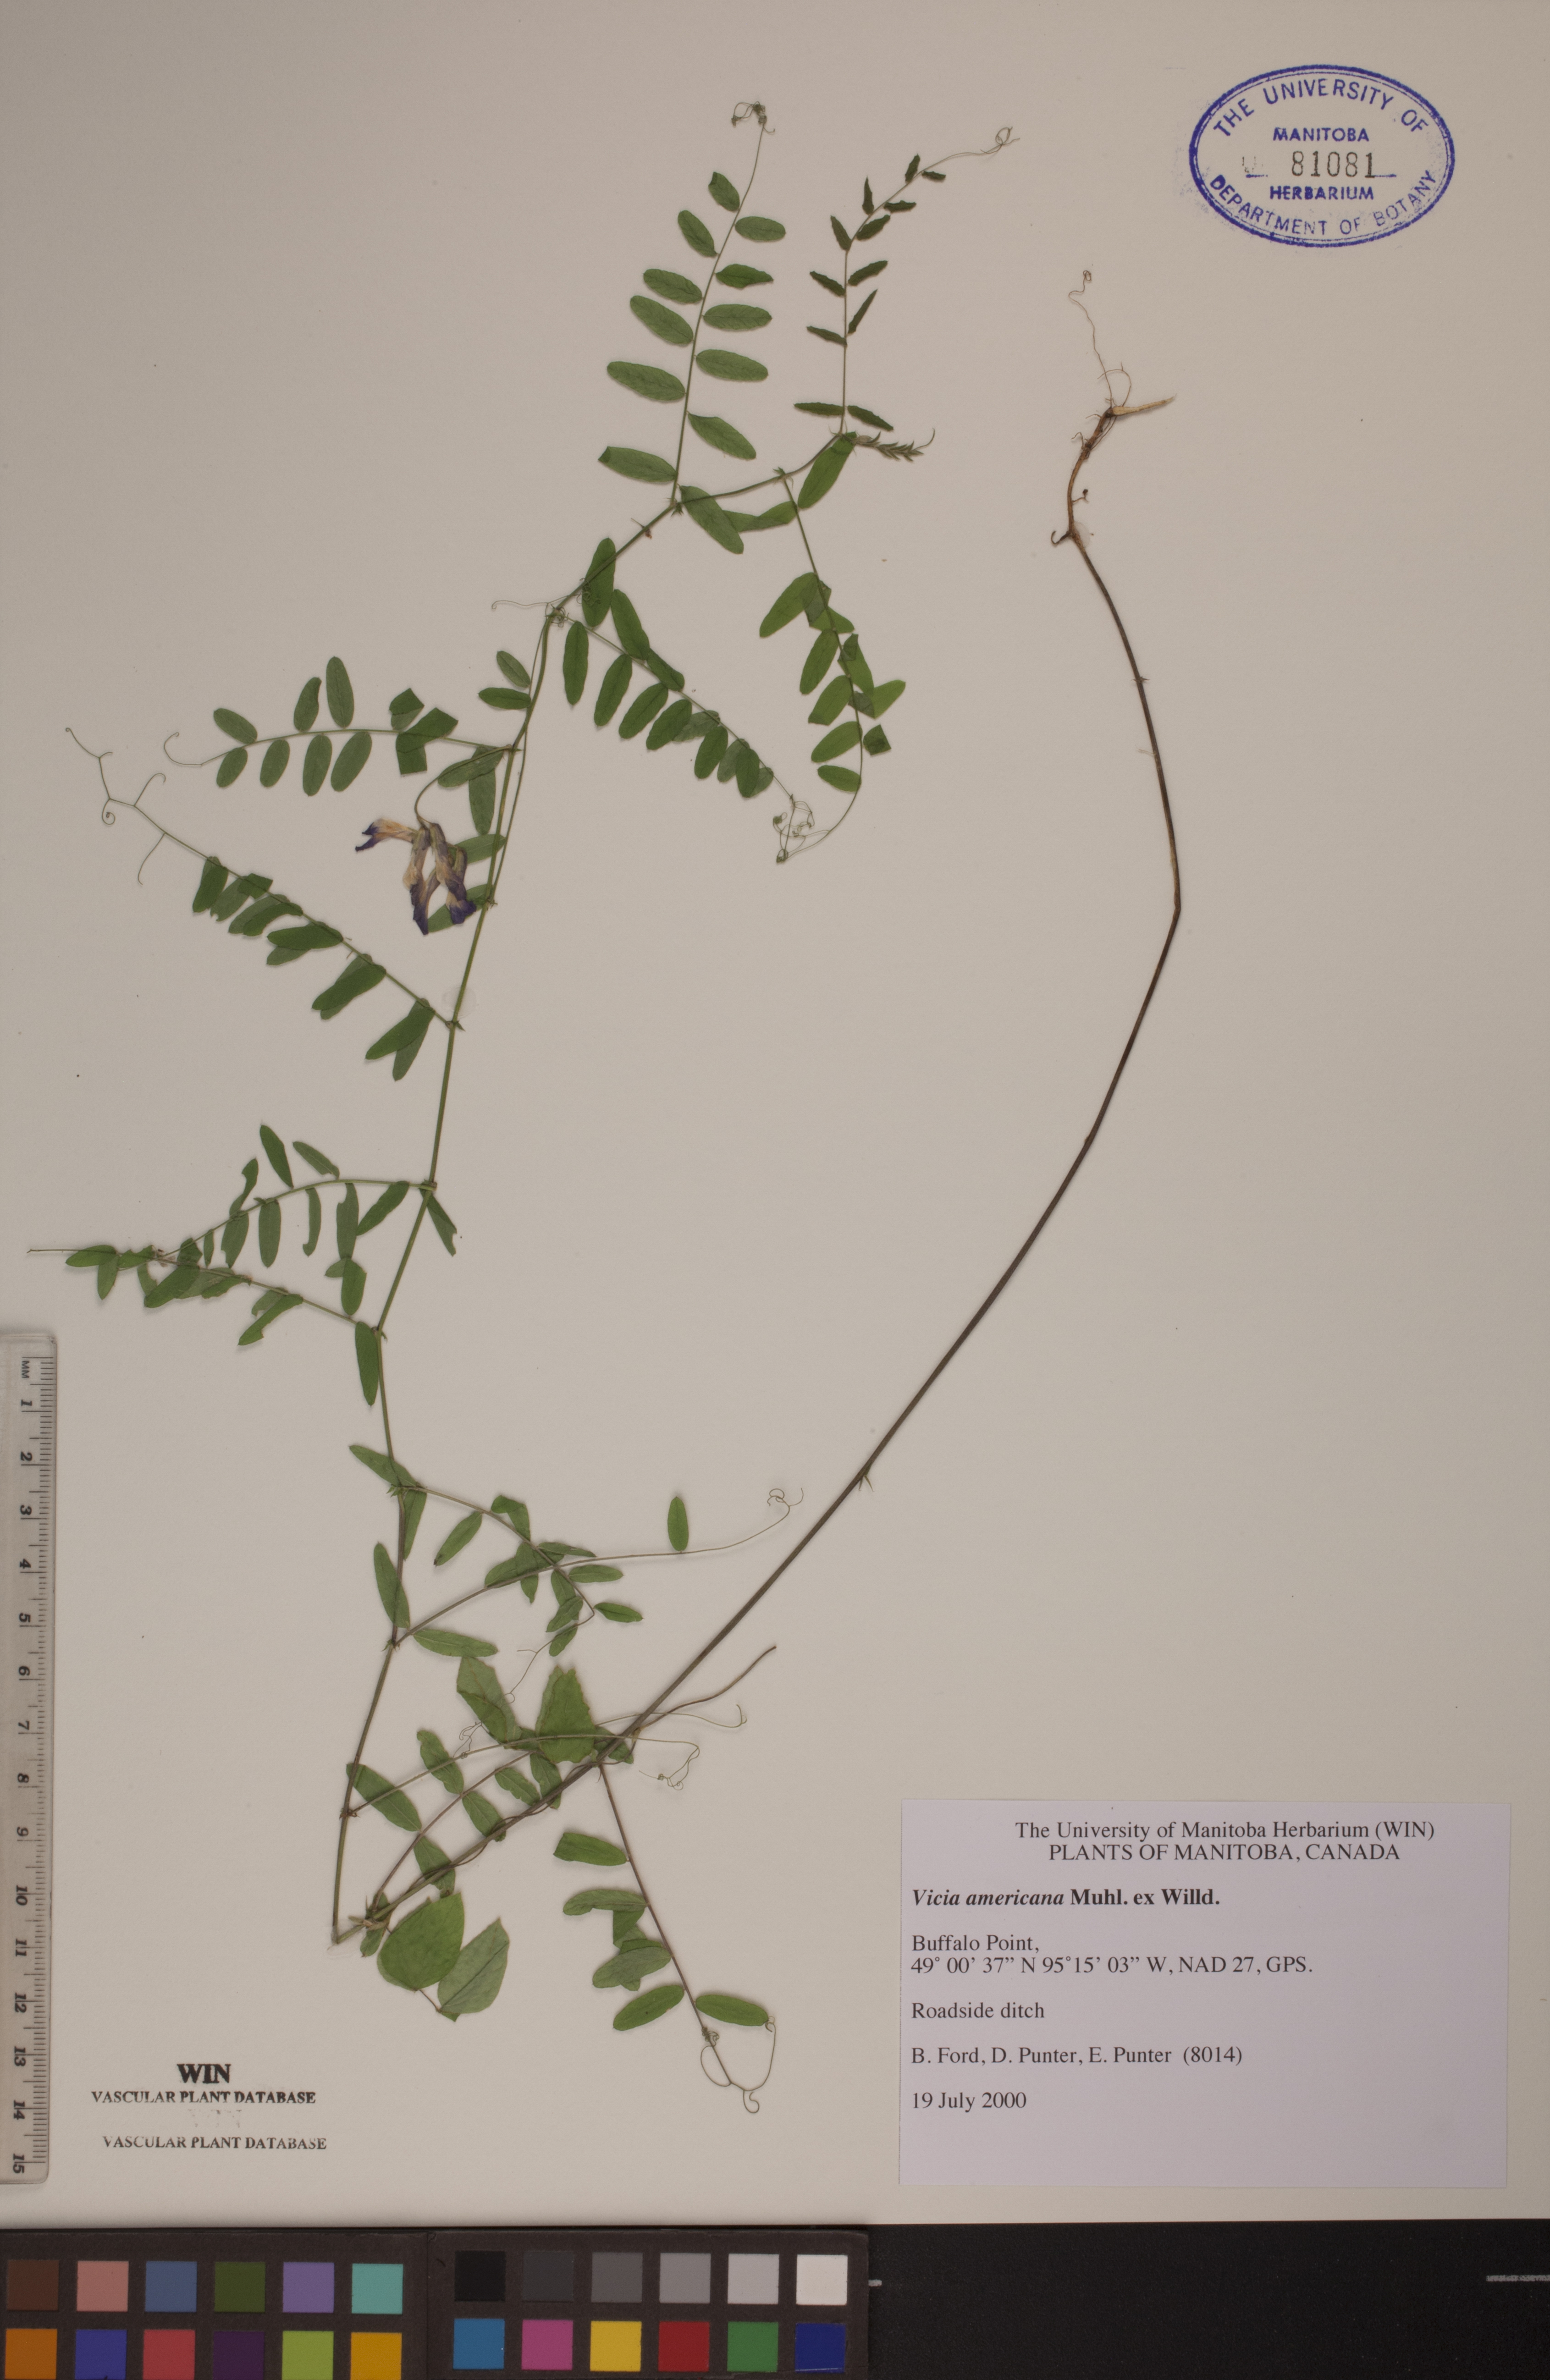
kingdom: Plantae
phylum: Tracheophyta
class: Magnoliopsida
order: Fabales
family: Fabaceae
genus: Vicia
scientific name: Vicia americana
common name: American vetch
